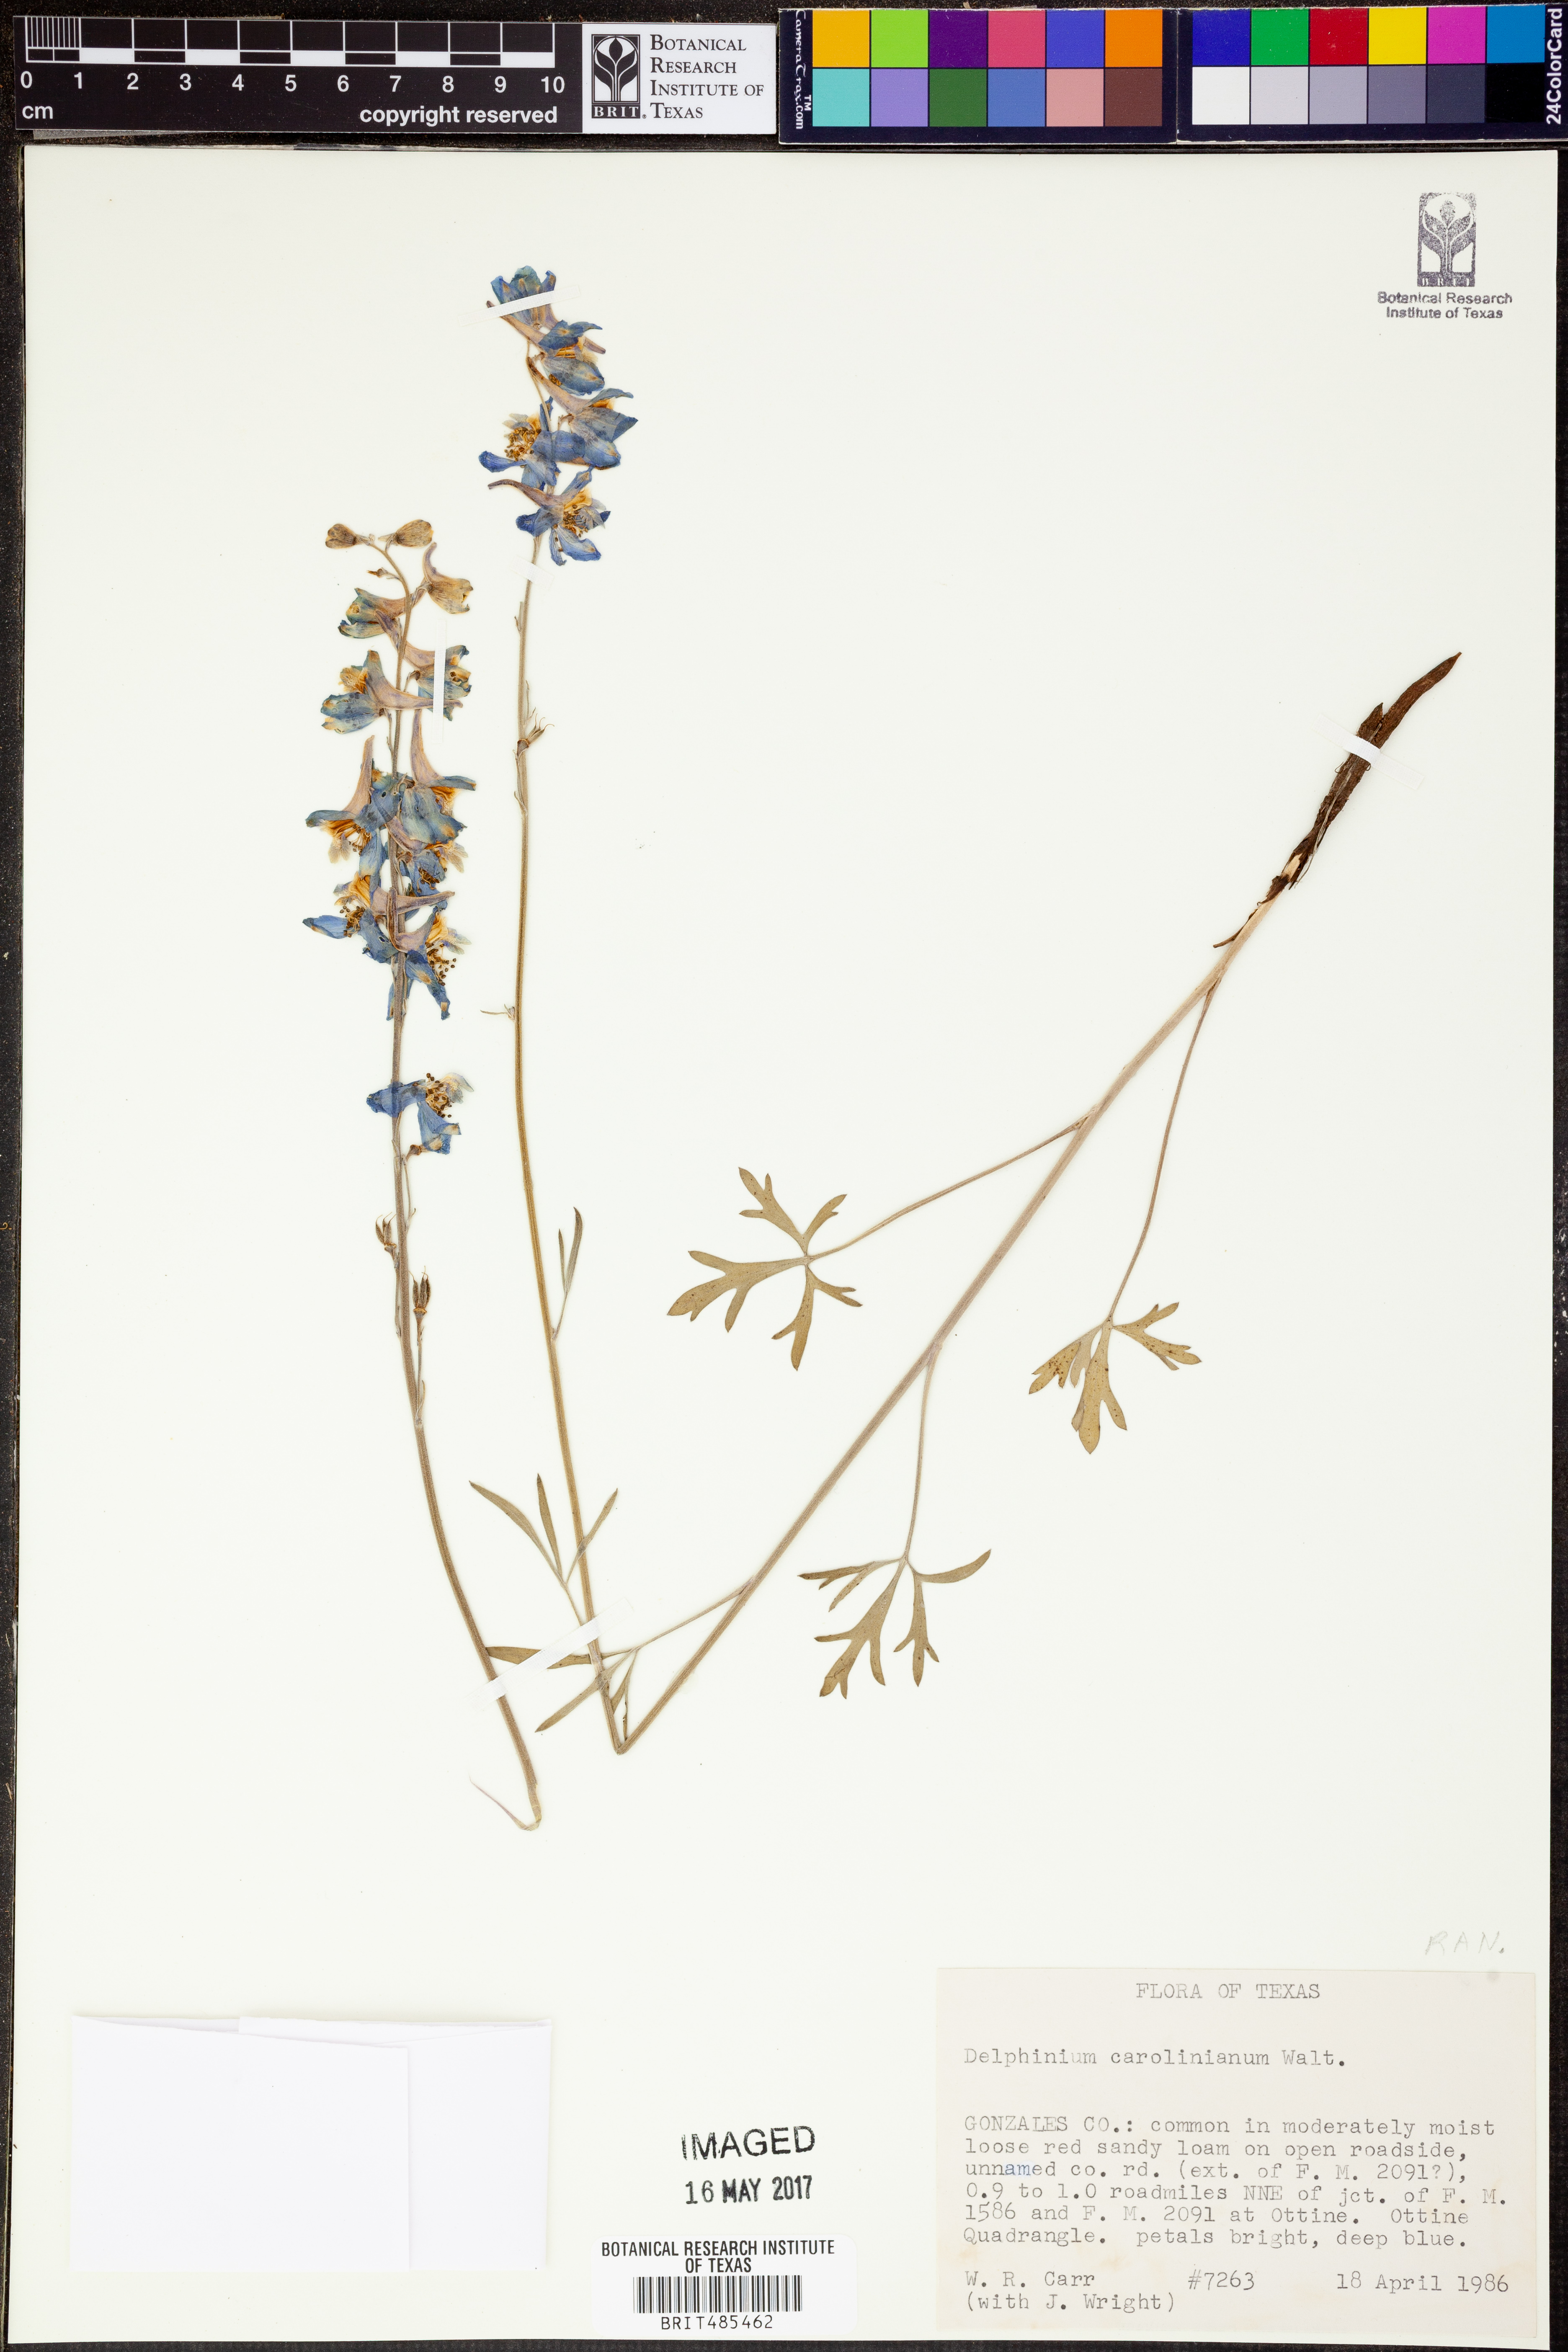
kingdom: Plantae
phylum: Tracheophyta
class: Magnoliopsida
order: Ranunculales
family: Ranunculaceae
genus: Delphinium
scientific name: Delphinium carolinianum
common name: Carolina larkspur
